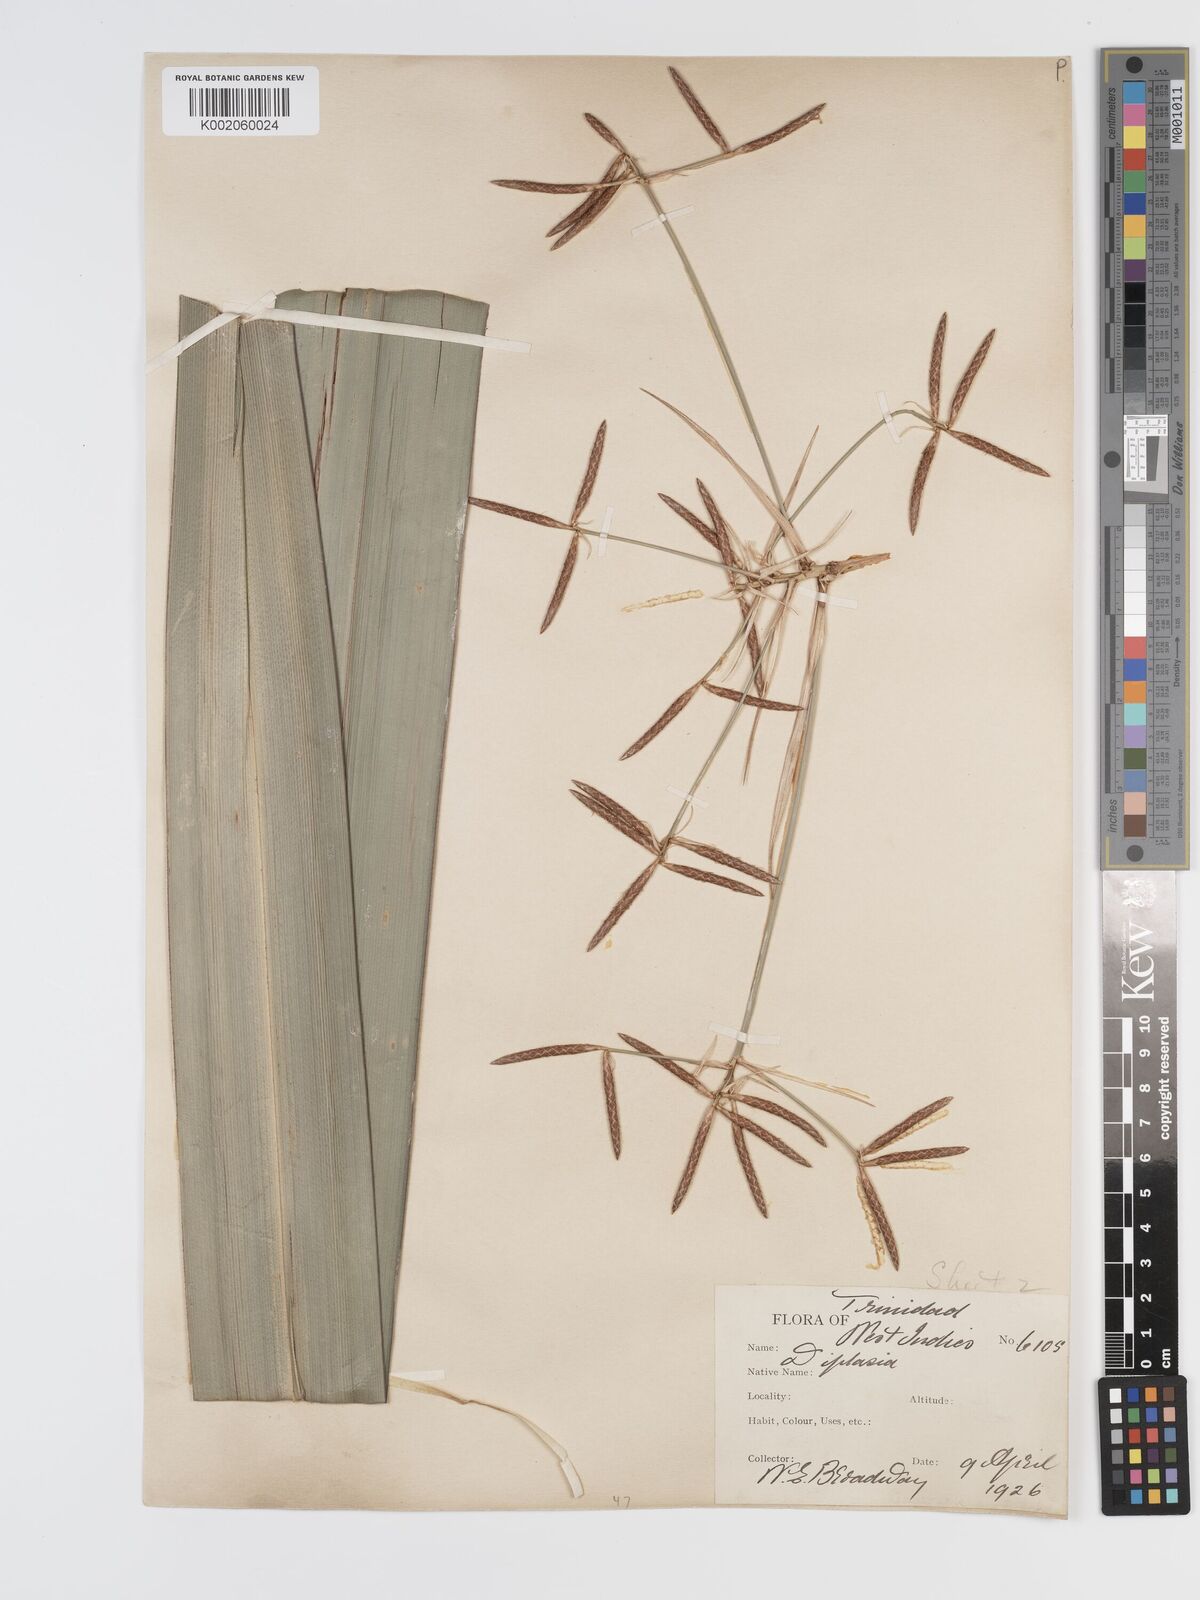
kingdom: Plantae
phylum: Tracheophyta
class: Liliopsida
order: Poales
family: Cyperaceae
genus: Diplasia
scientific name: Diplasia karatifolia
